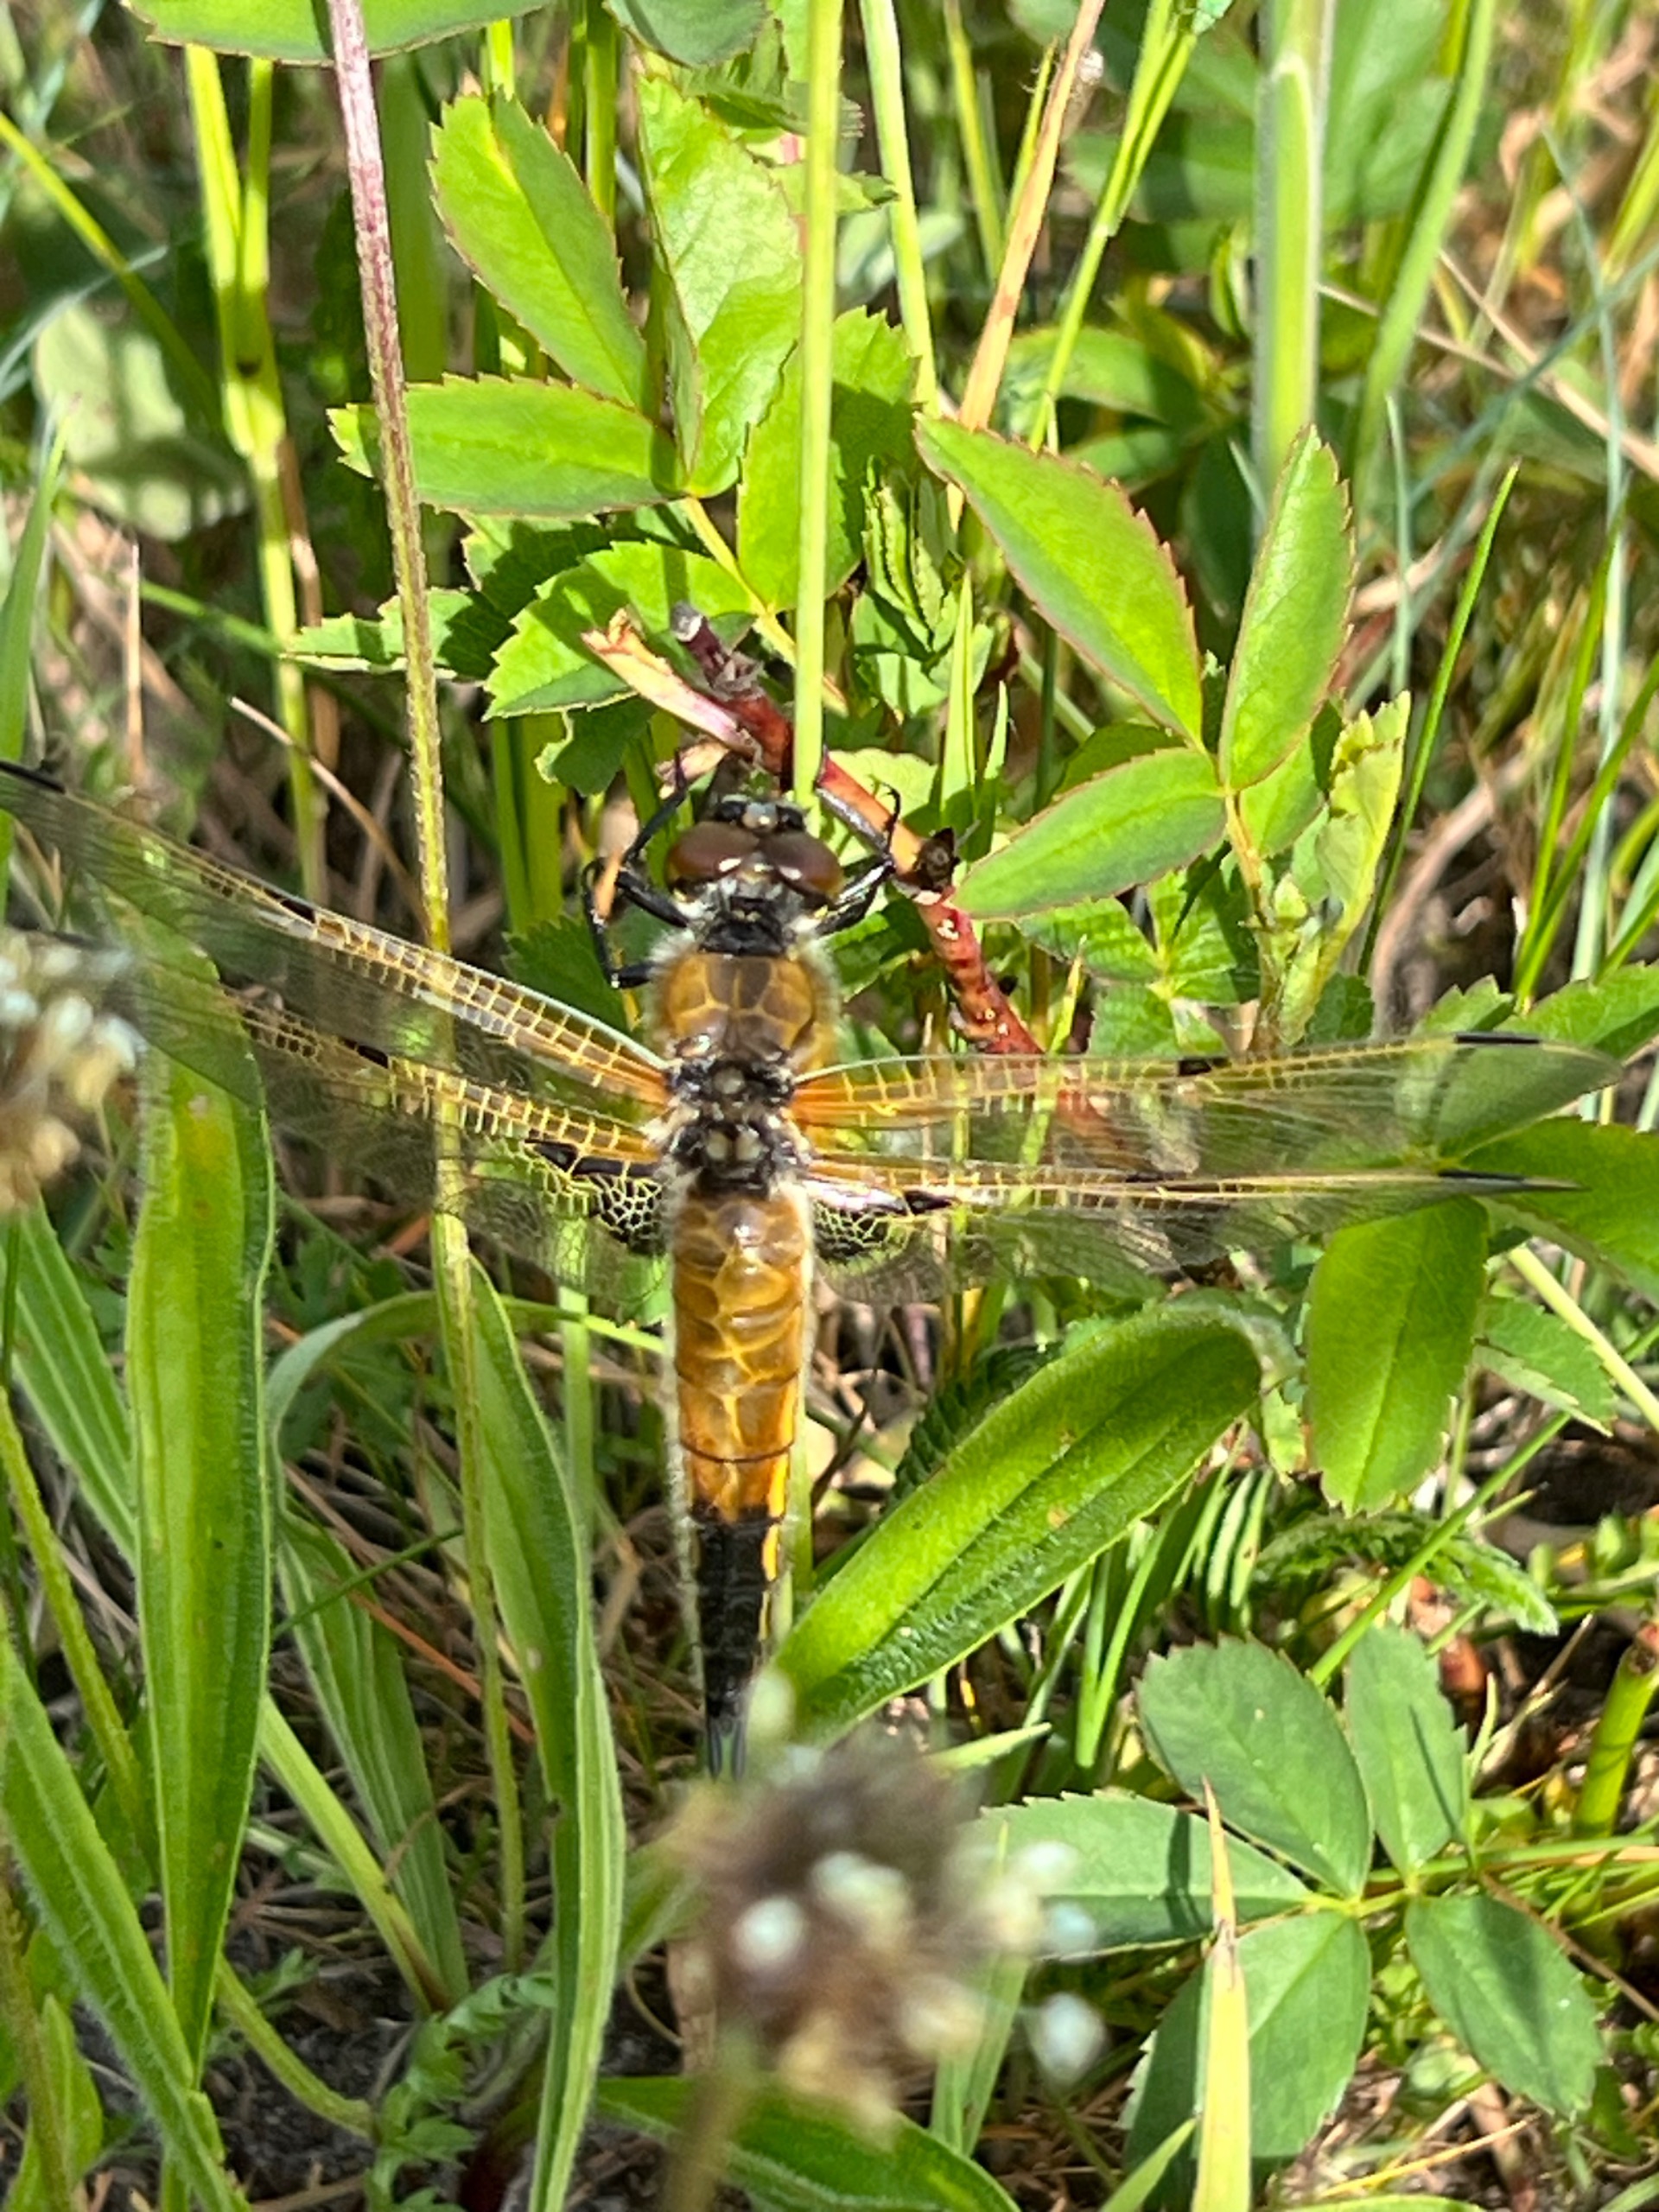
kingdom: Animalia
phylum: Arthropoda
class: Insecta
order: Odonata
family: Libellulidae
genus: Libellula
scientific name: Libellula quadrimaculata
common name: Fireplettet libel
